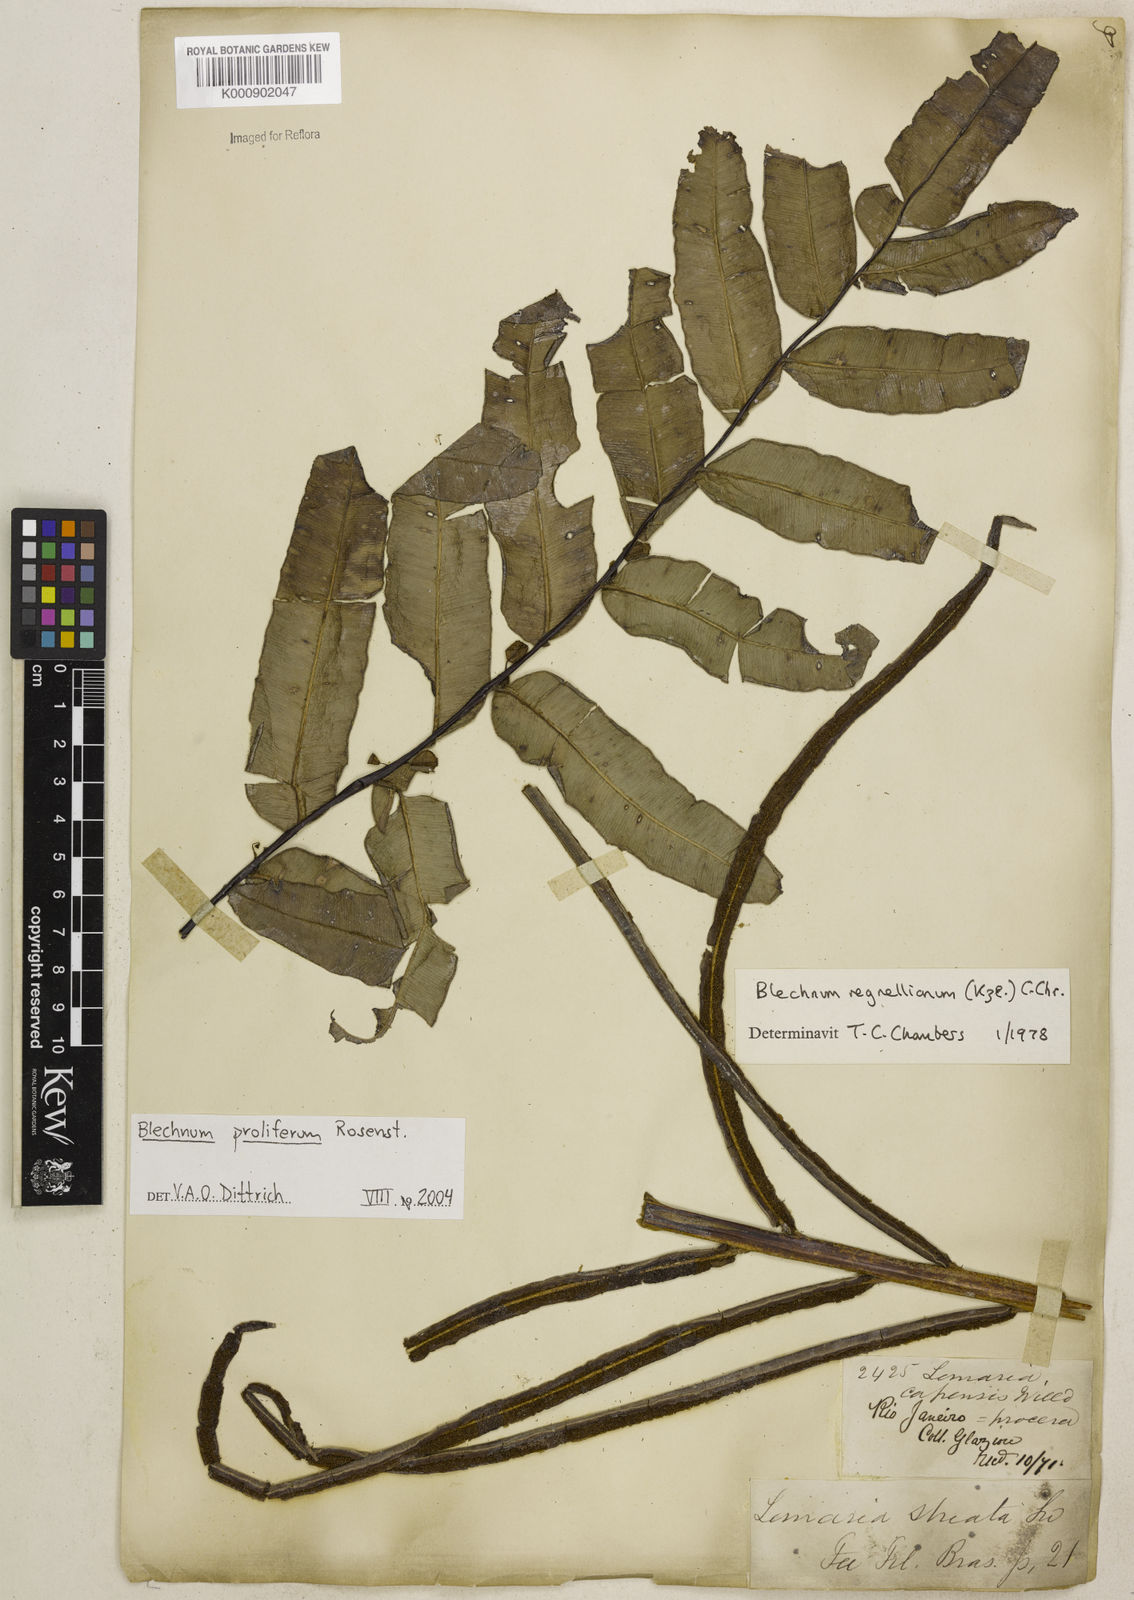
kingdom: Plantae
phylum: Tracheophyta
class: Polypodiopsida
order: Polypodiales
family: Blechnaceae
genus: Parablechnum
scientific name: Parablechnum proliferum
